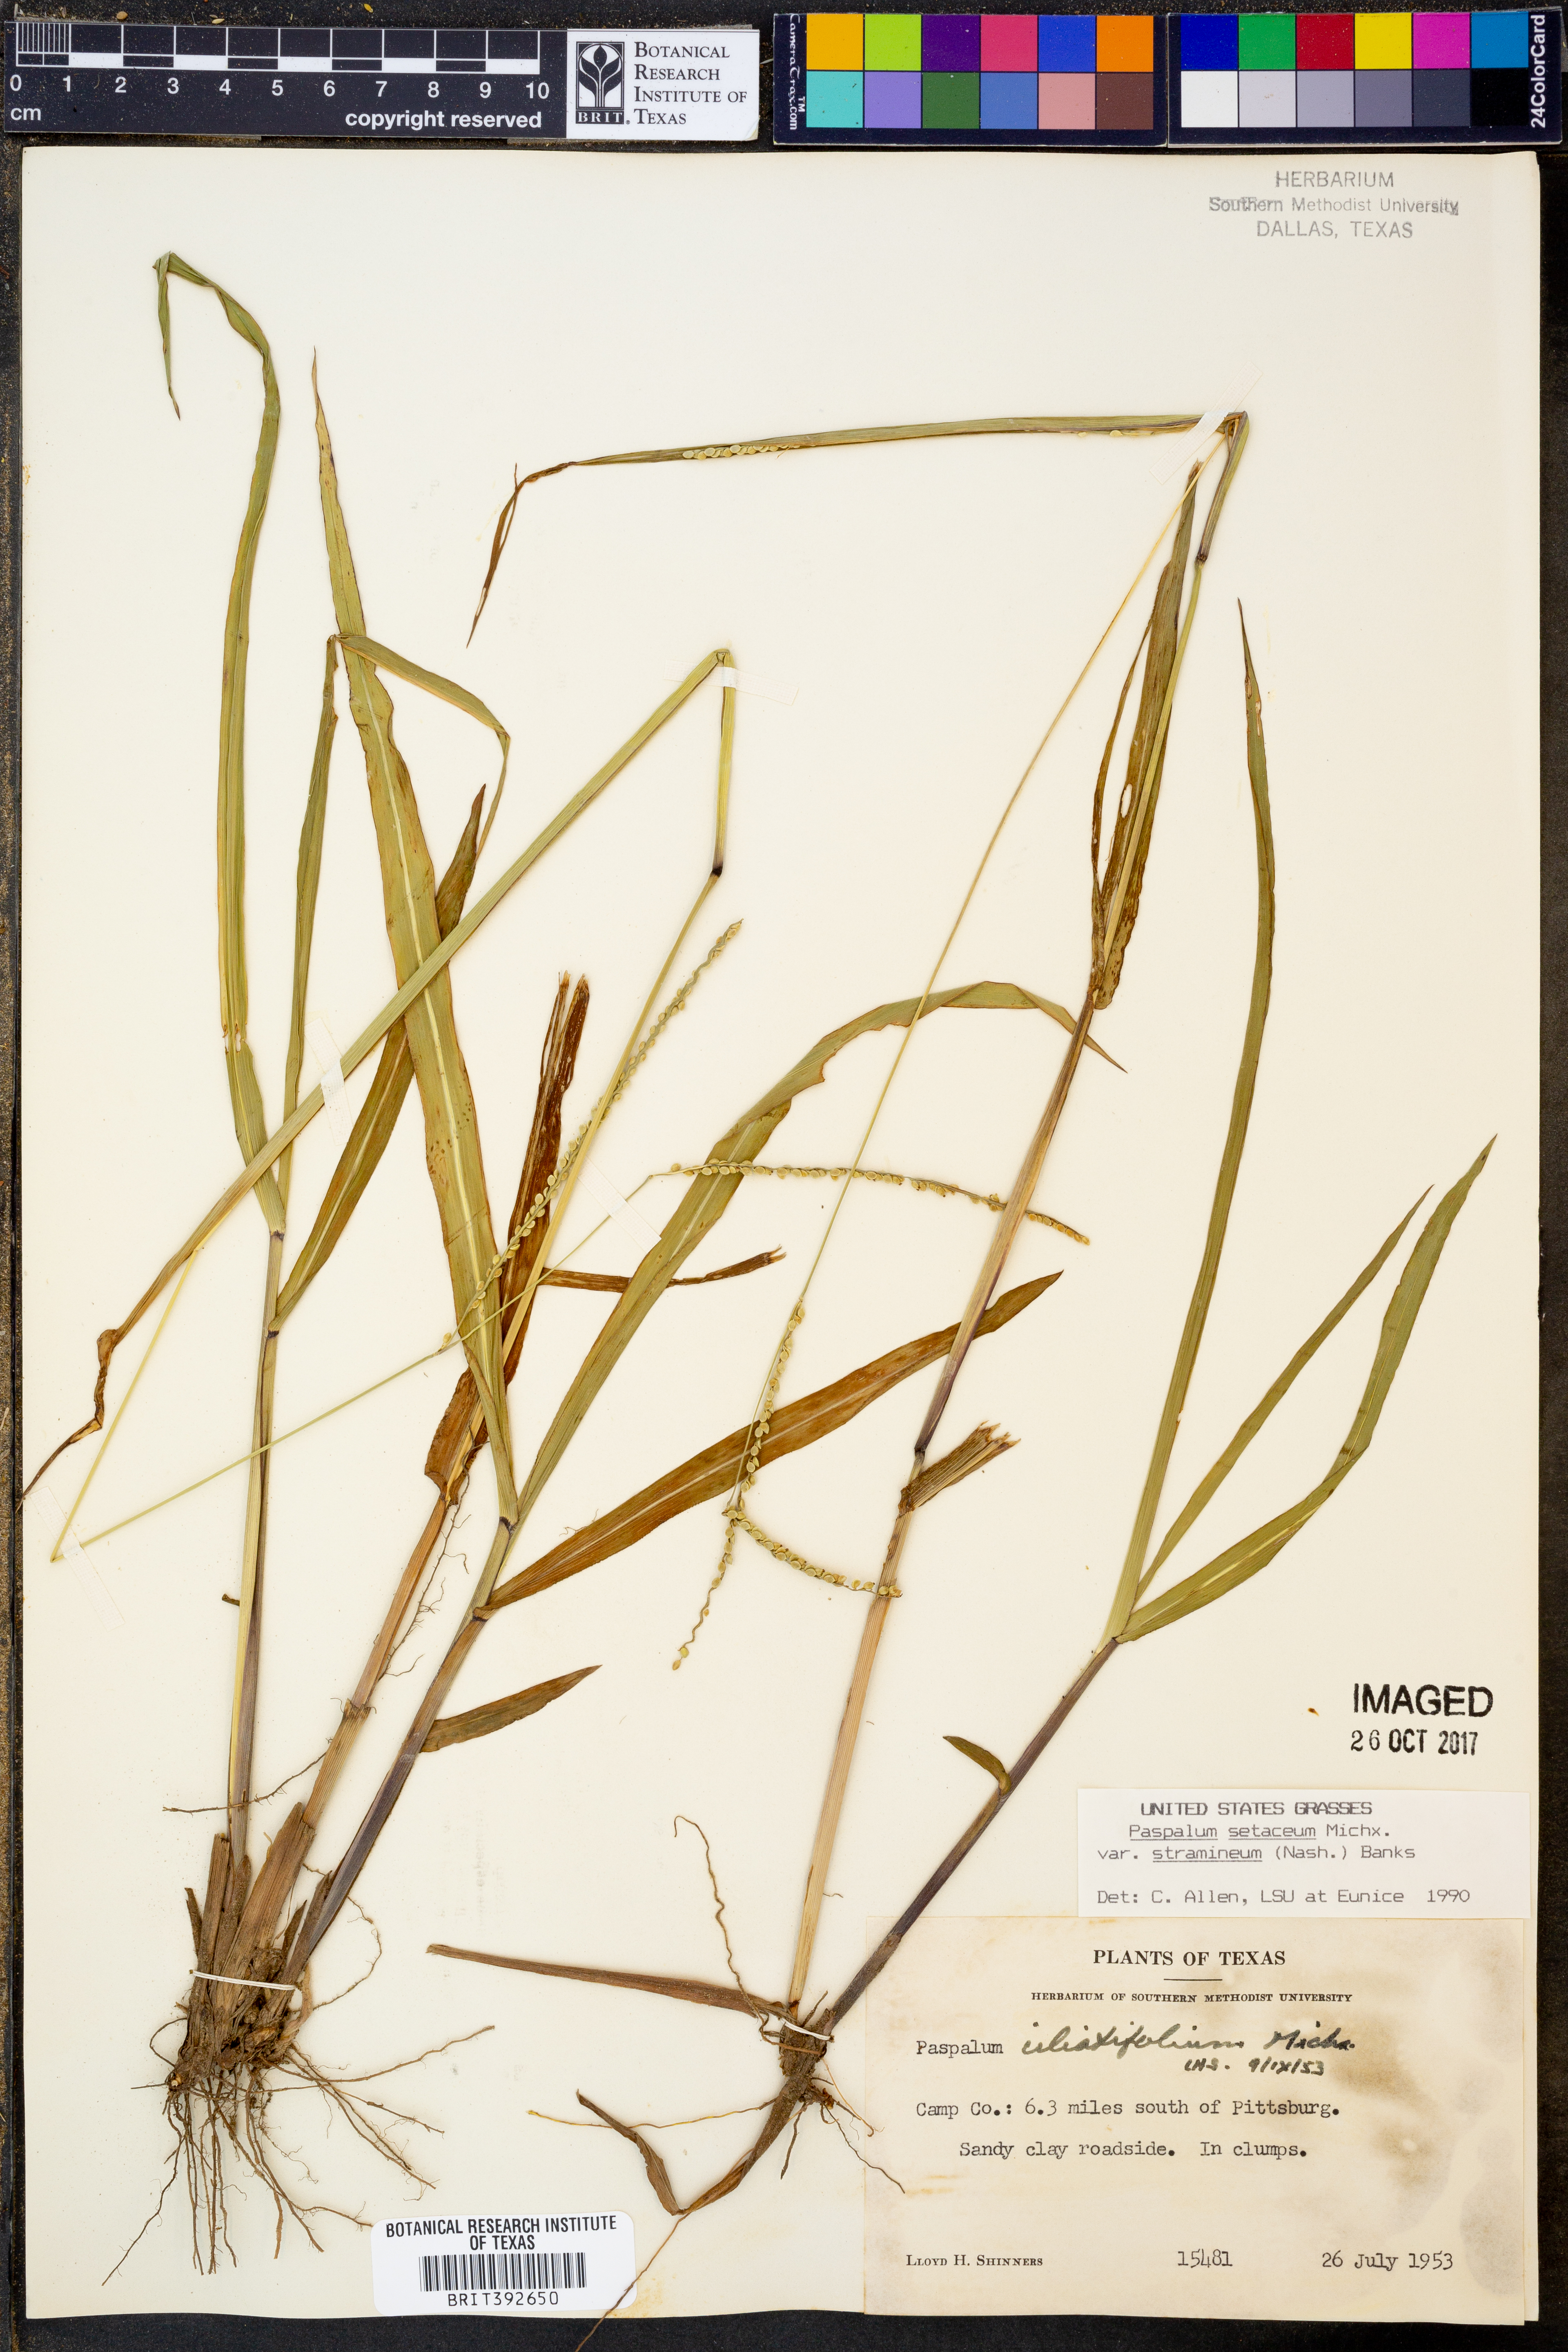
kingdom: Plantae
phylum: Tracheophyta
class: Liliopsida
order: Poales
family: Poaceae
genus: Paspalum
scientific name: Paspalum setaceum
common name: Slender paspalum
